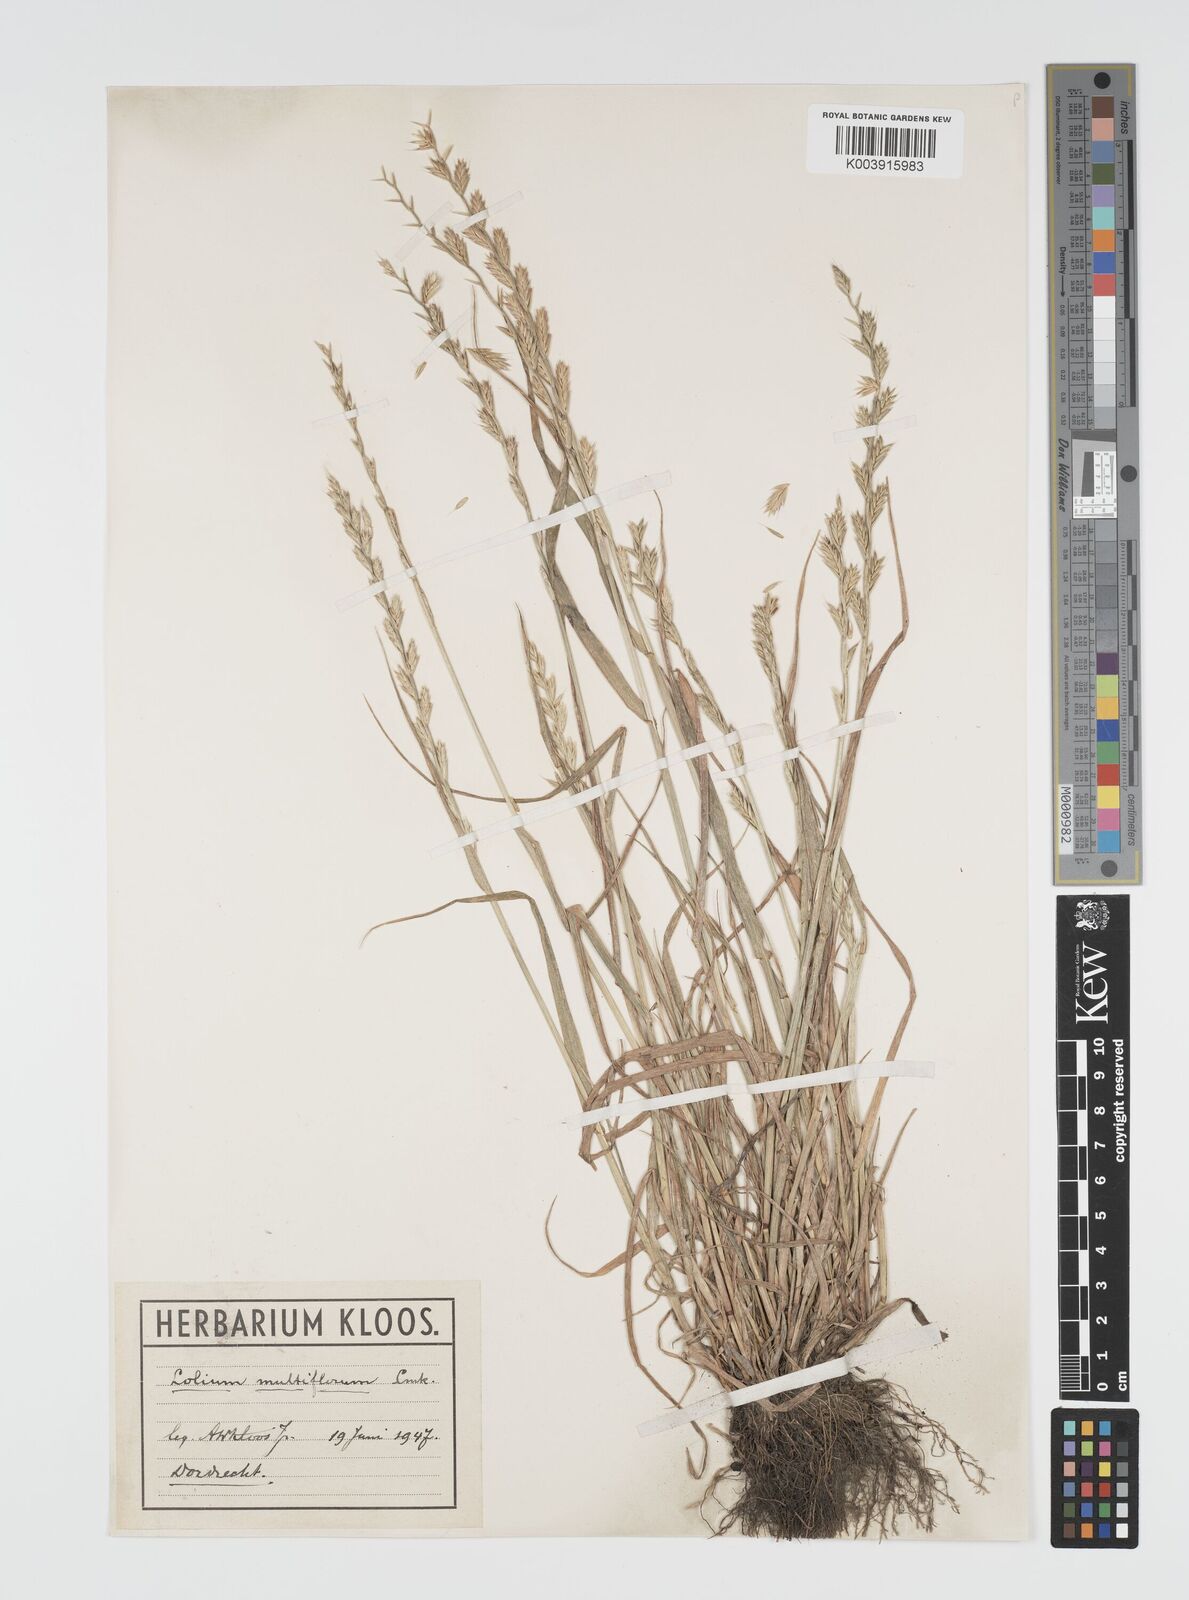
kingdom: Plantae
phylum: Tracheophyta
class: Liliopsida
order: Poales
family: Poaceae
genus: Lolium
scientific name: Lolium multiflorum
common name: Annual ryegrass
